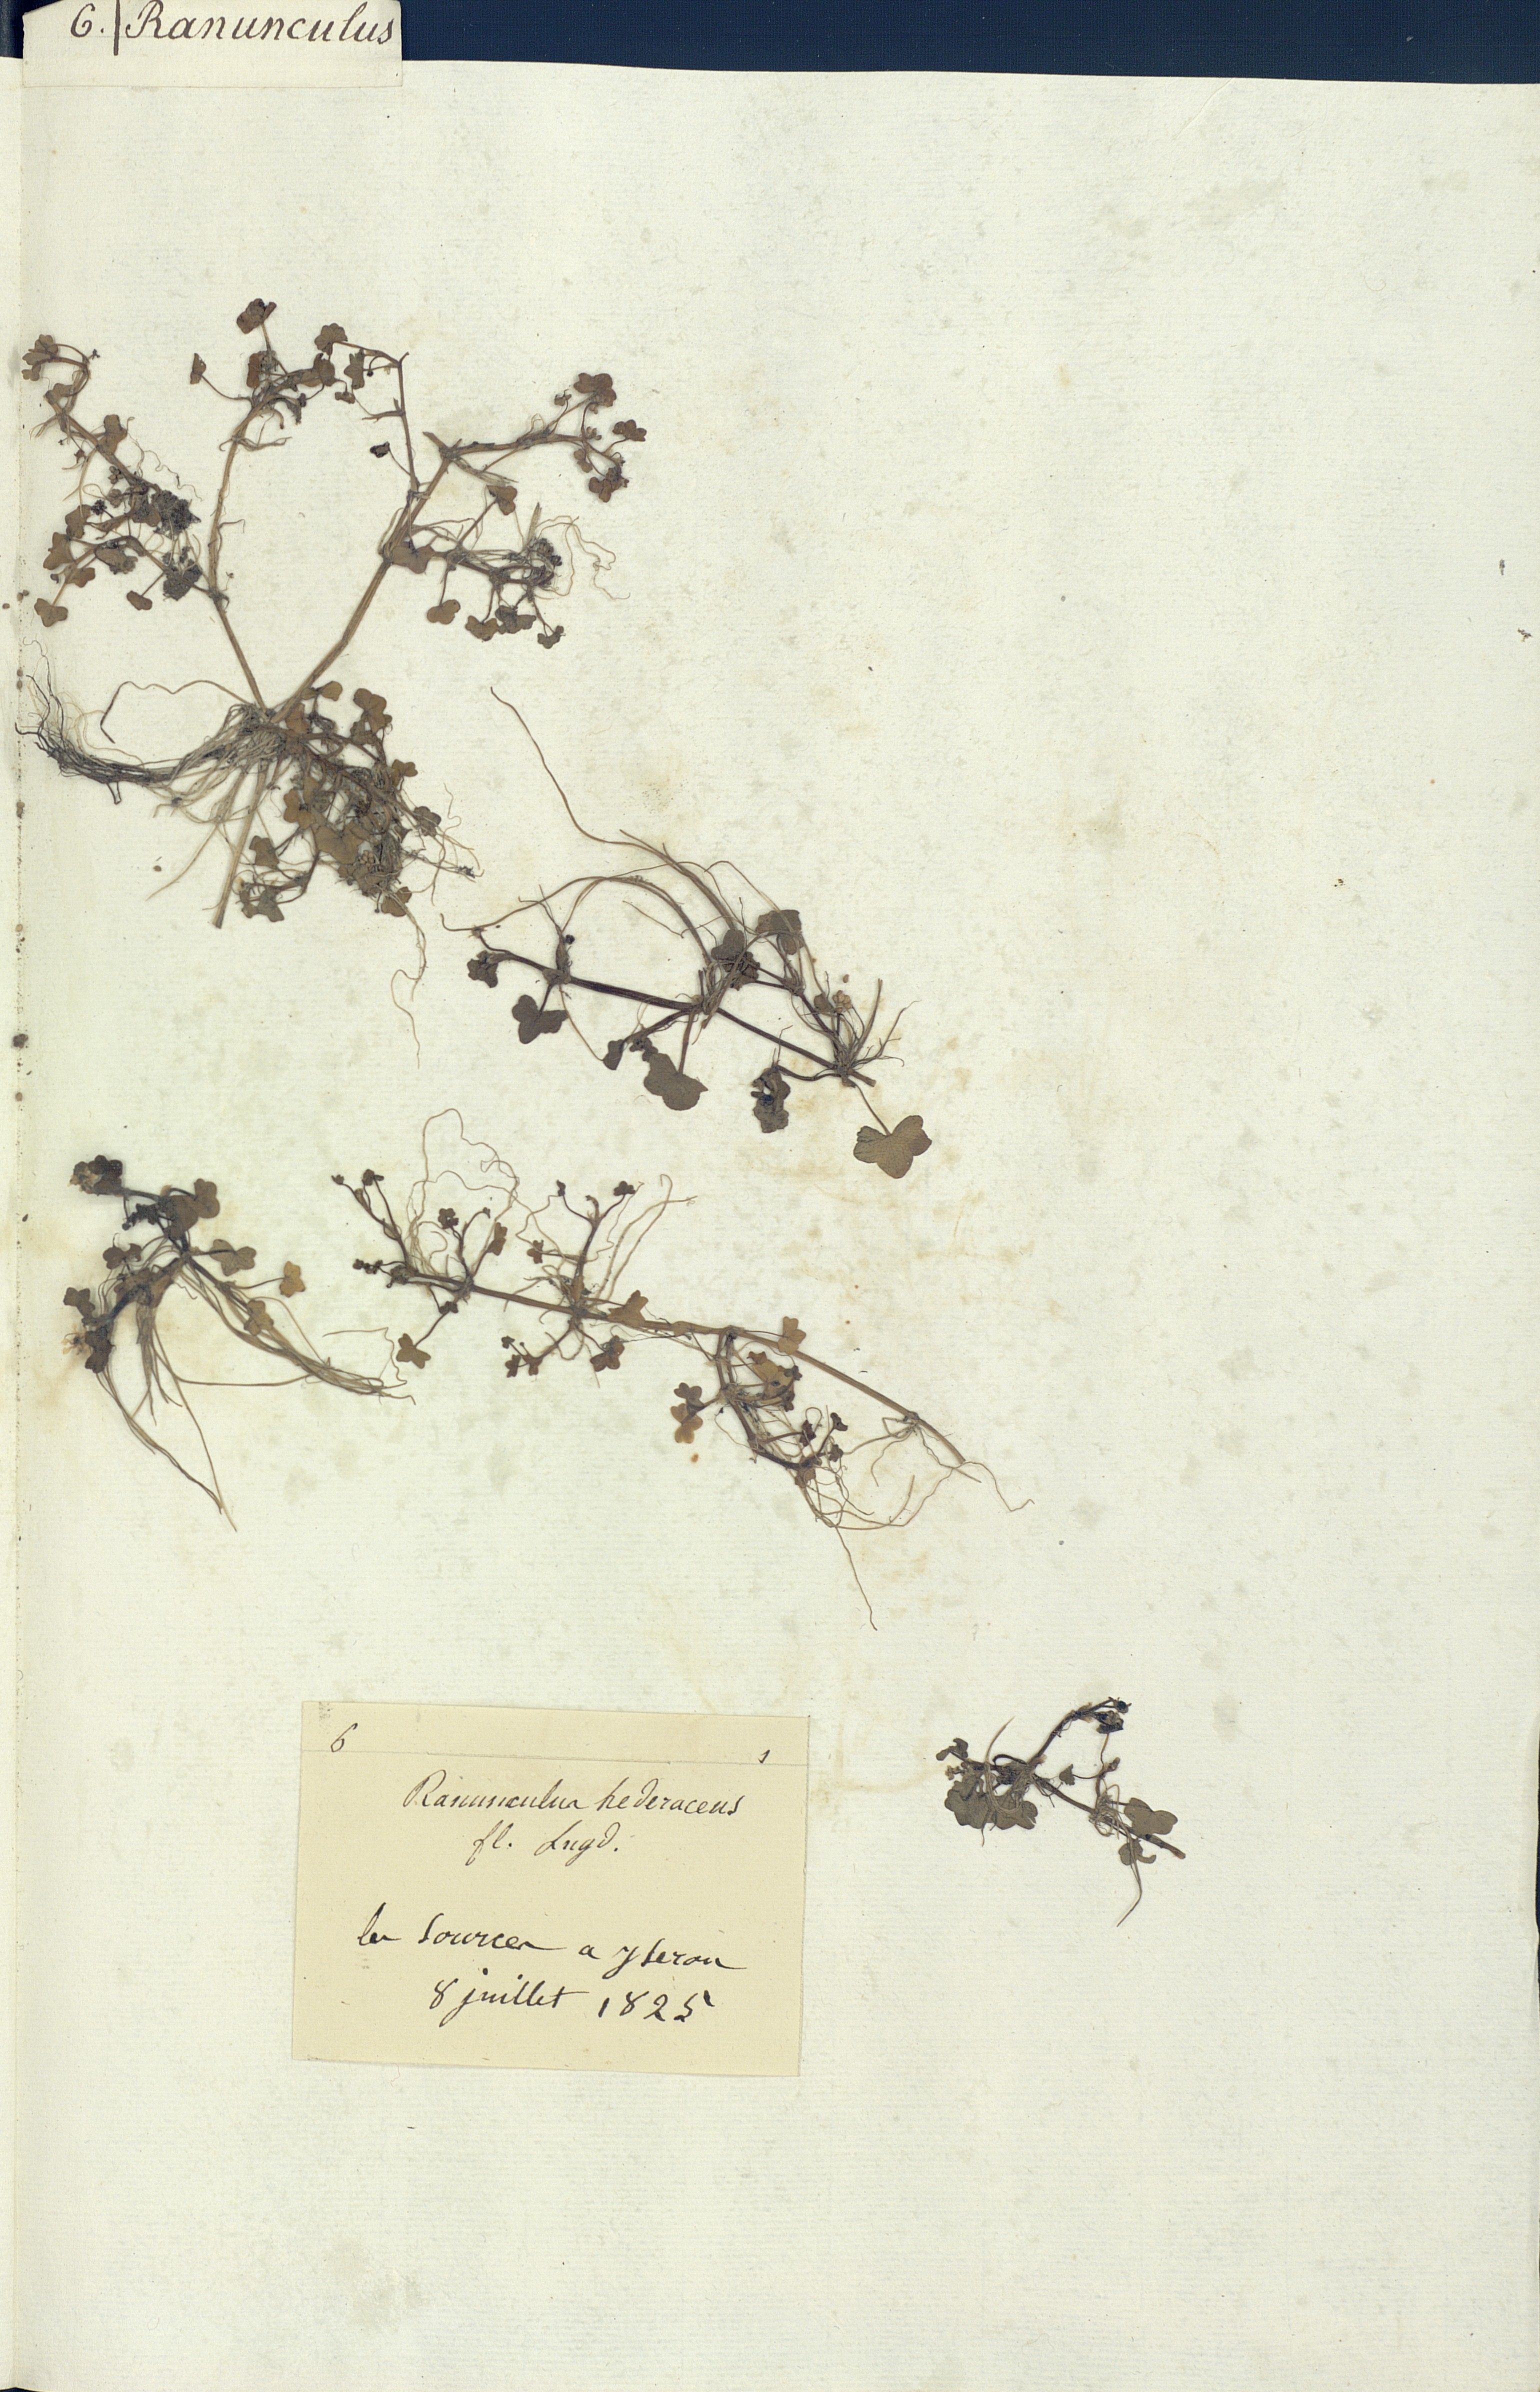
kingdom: Plantae
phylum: Tracheophyta
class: Magnoliopsida
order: Ranunculales
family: Ranunculaceae
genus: Ranunculus
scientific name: Ranunculus hederaceus
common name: Ivy-leaved crowfoot
